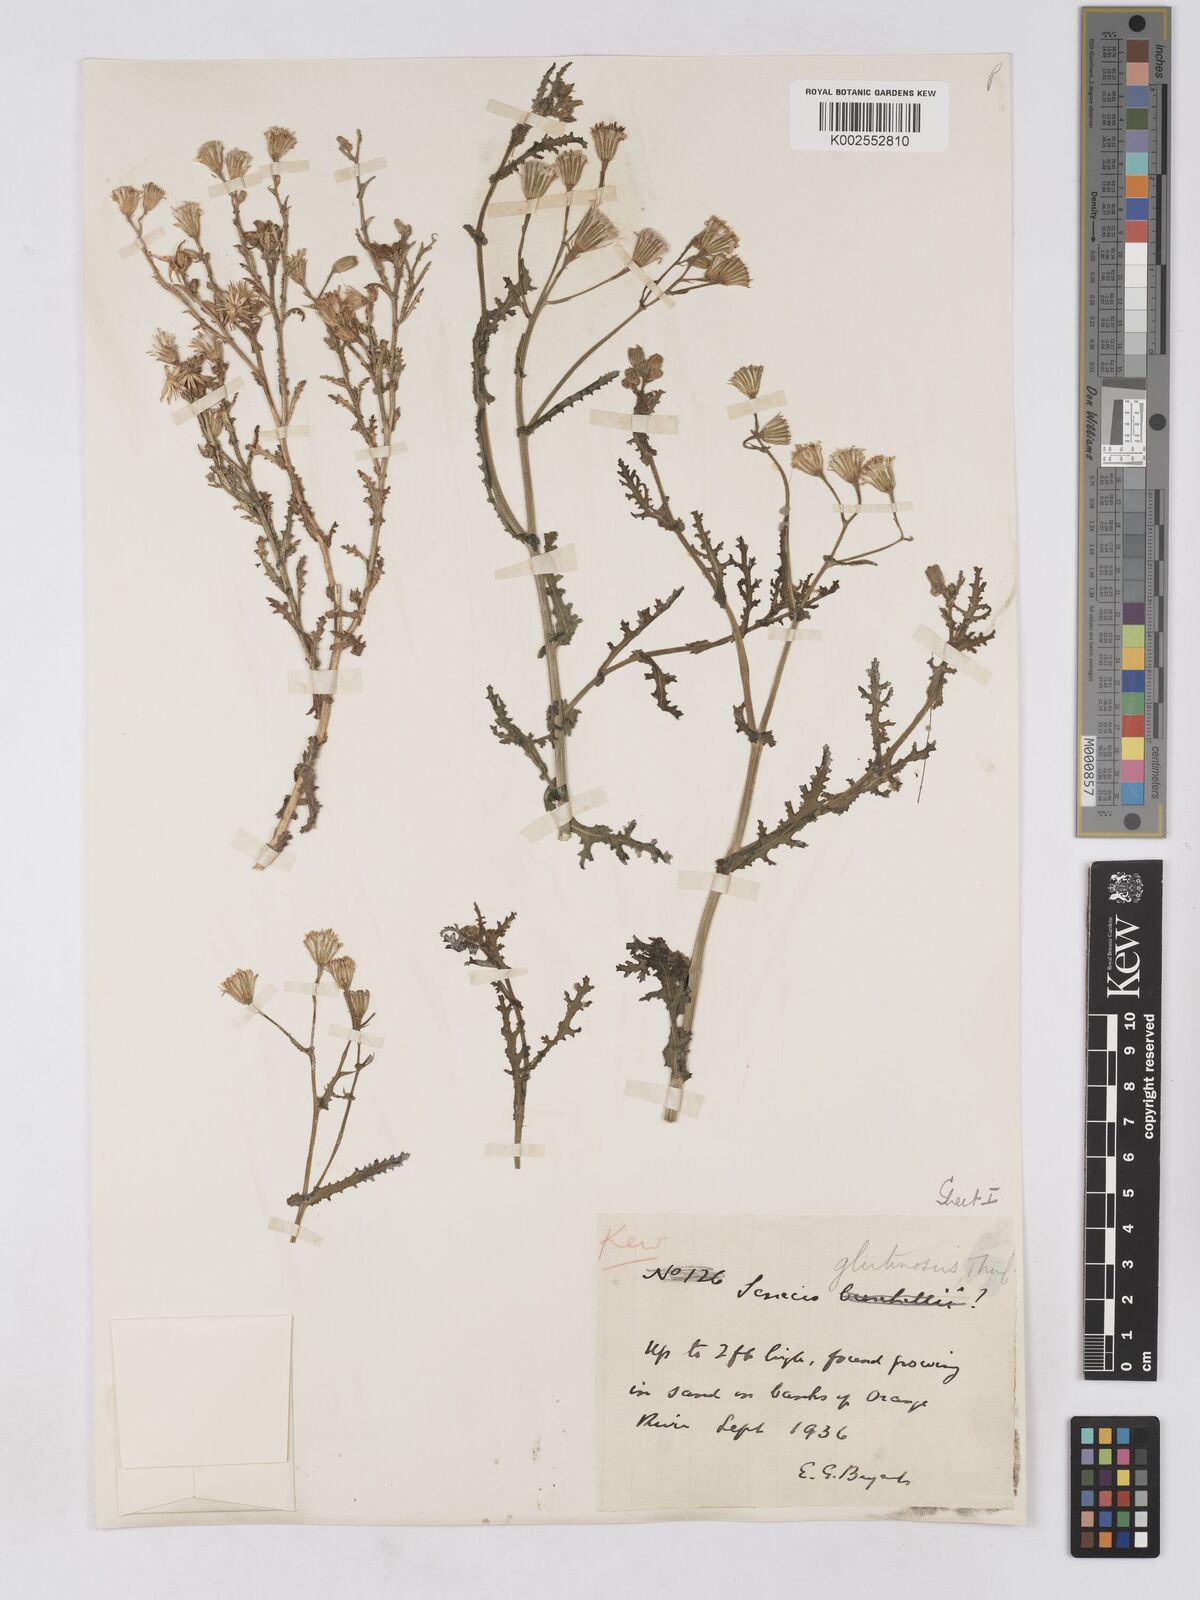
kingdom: Plantae
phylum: Tracheophyta
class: Magnoliopsida
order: Asterales
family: Asteraceae
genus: Senecio
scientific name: Senecio consanguineus
